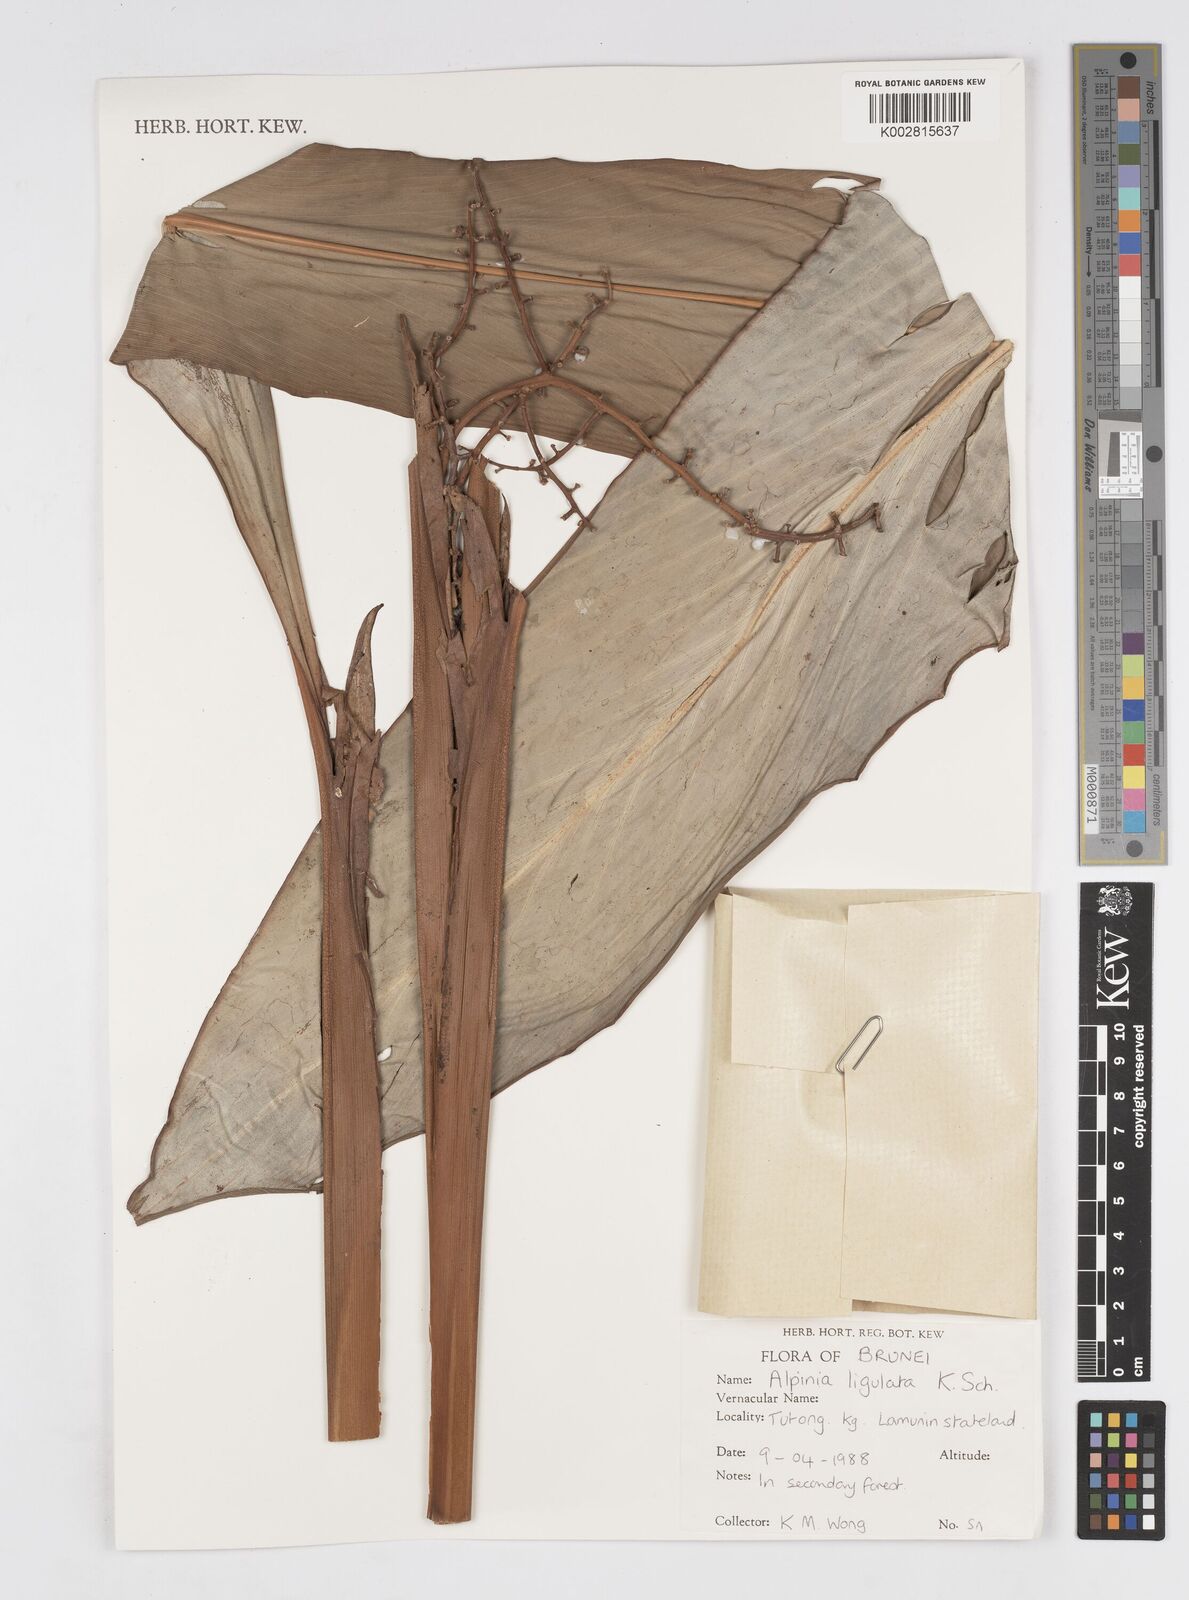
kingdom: Plantae
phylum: Tracheophyta
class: Liliopsida
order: Zingiberales
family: Zingiberaceae
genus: Alpinia
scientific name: Alpinia ligulata
